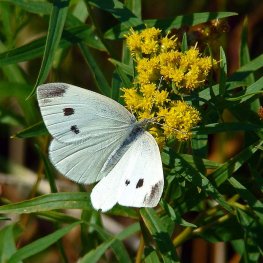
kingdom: Animalia
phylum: Arthropoda
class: Insecta
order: Lepidoptera
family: Pieridae
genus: Pieris
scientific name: Pieris rapae
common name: Cabbage White
